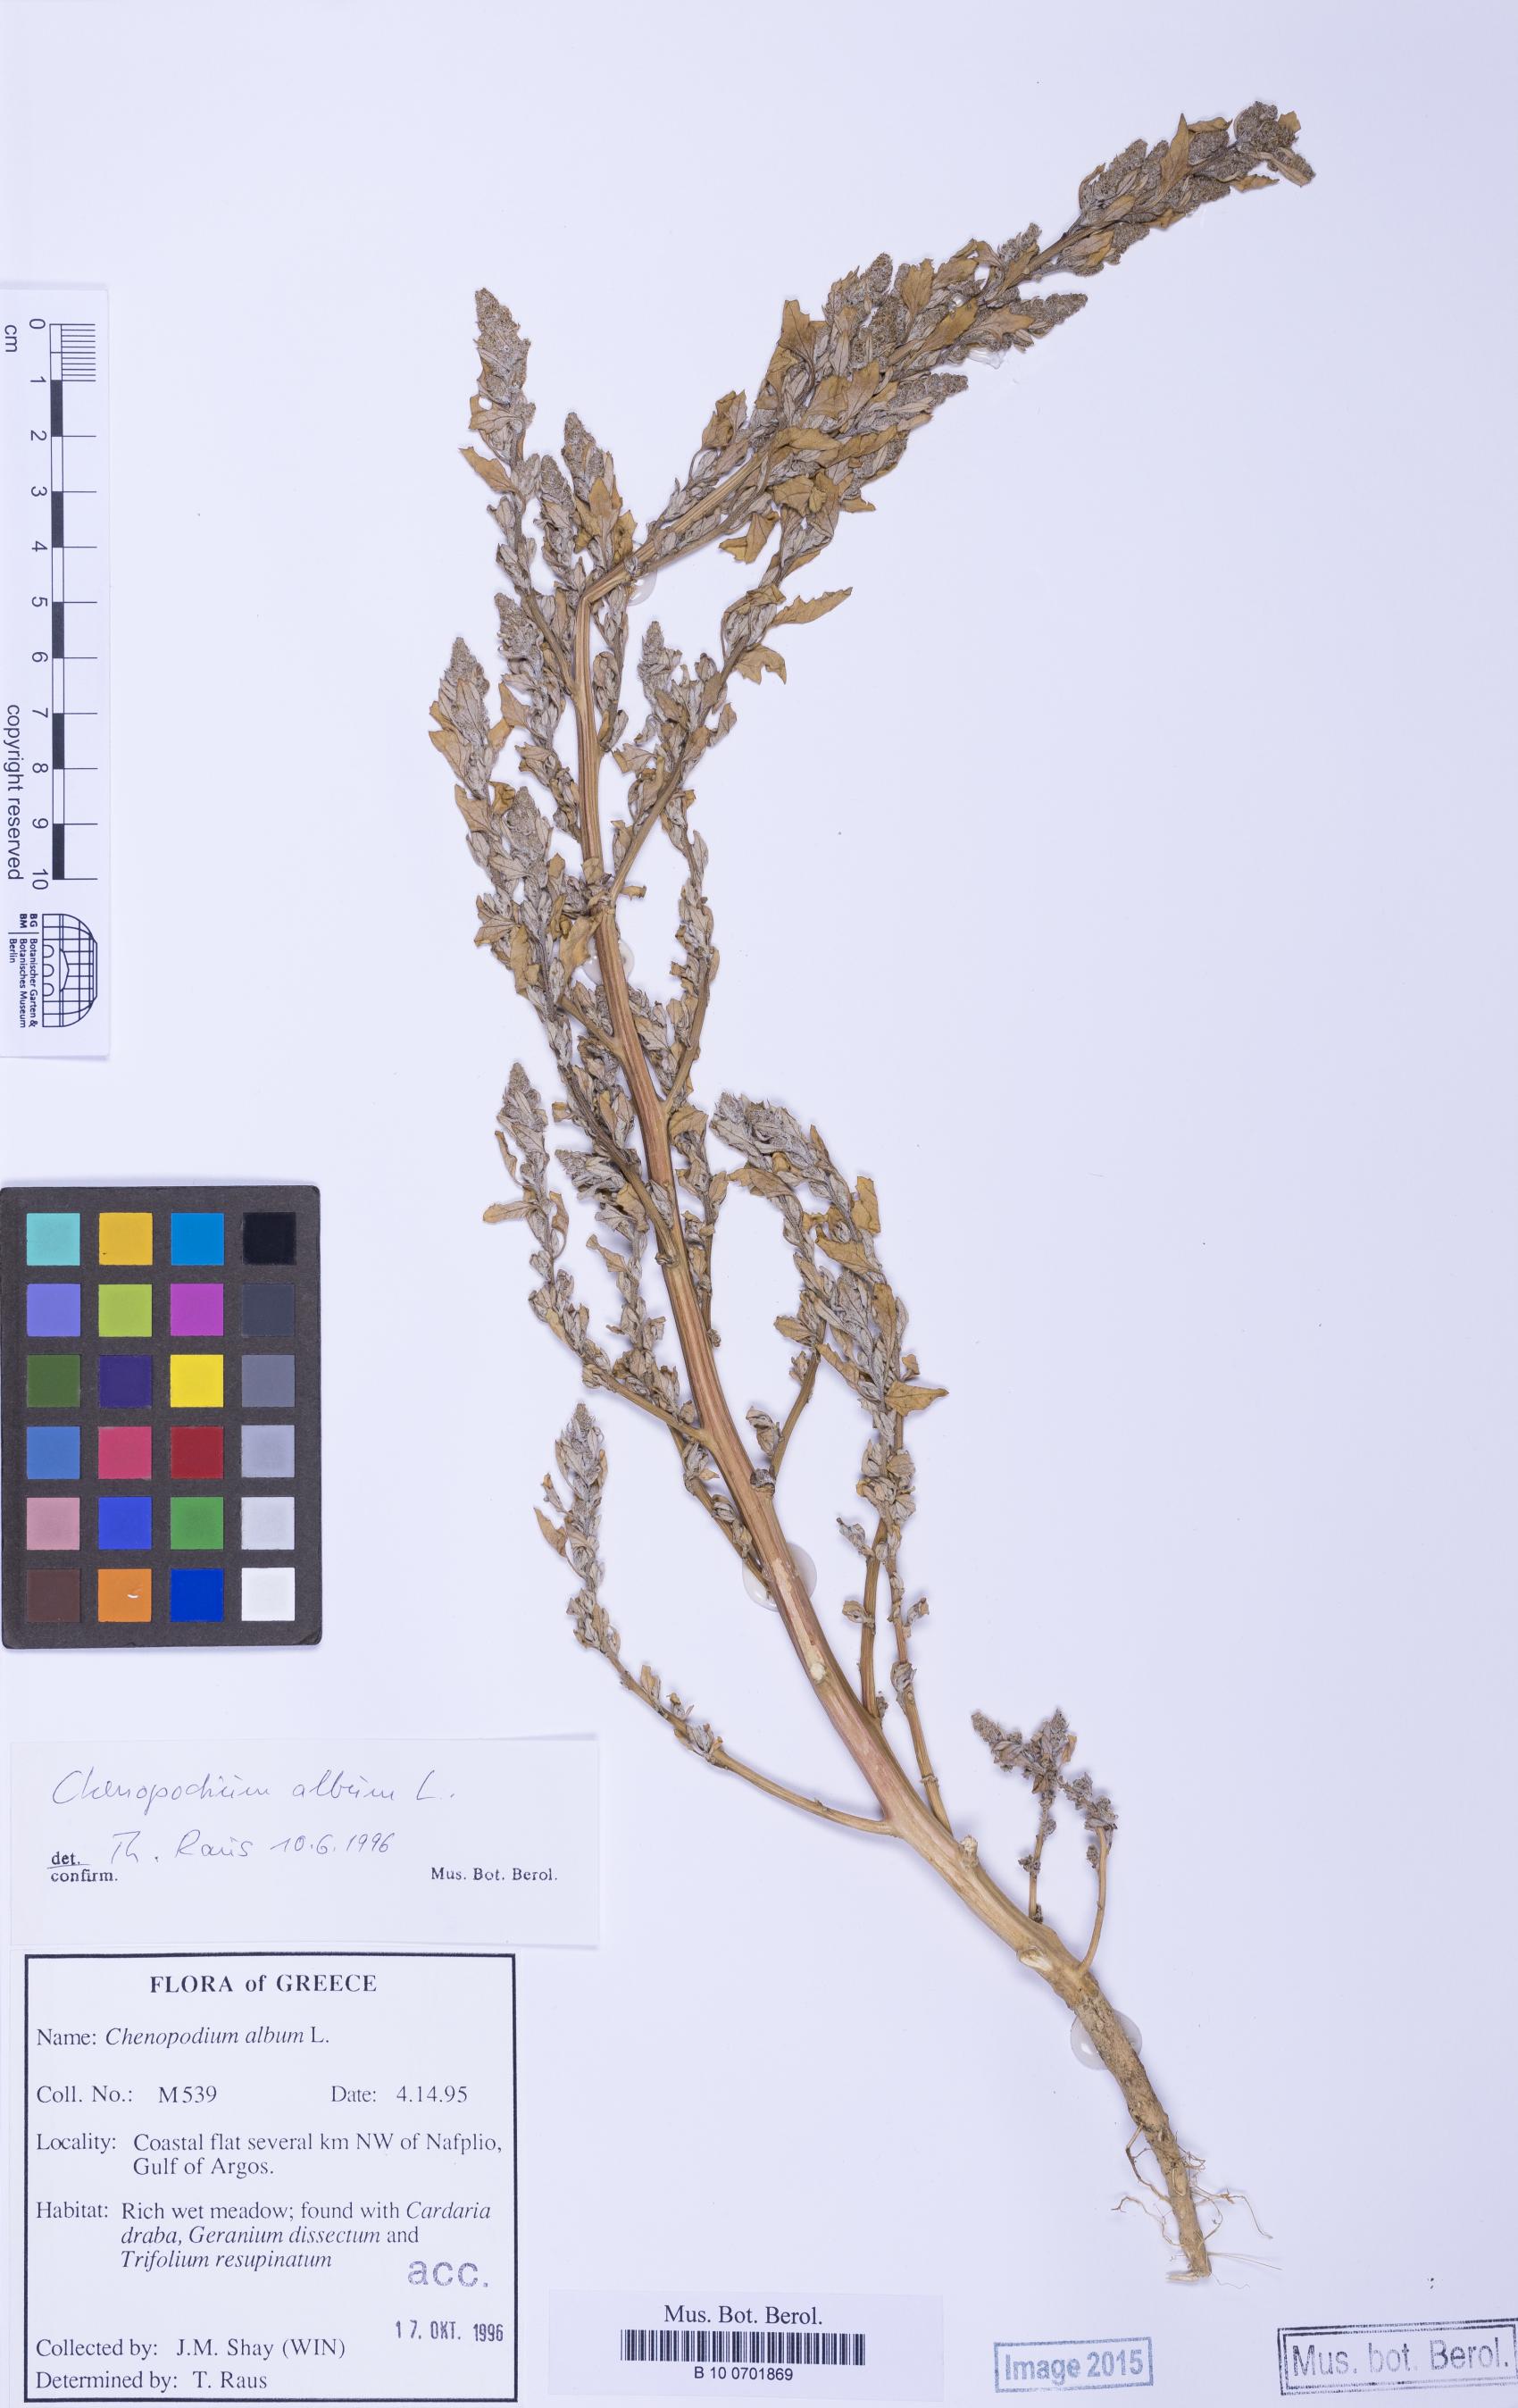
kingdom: Plantae
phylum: Tracheophyta
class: Magnoliopsida
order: Caryophyllales
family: Amaranthaceae
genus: Chenopodium
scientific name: Chenopodium album
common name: Fat-hen
